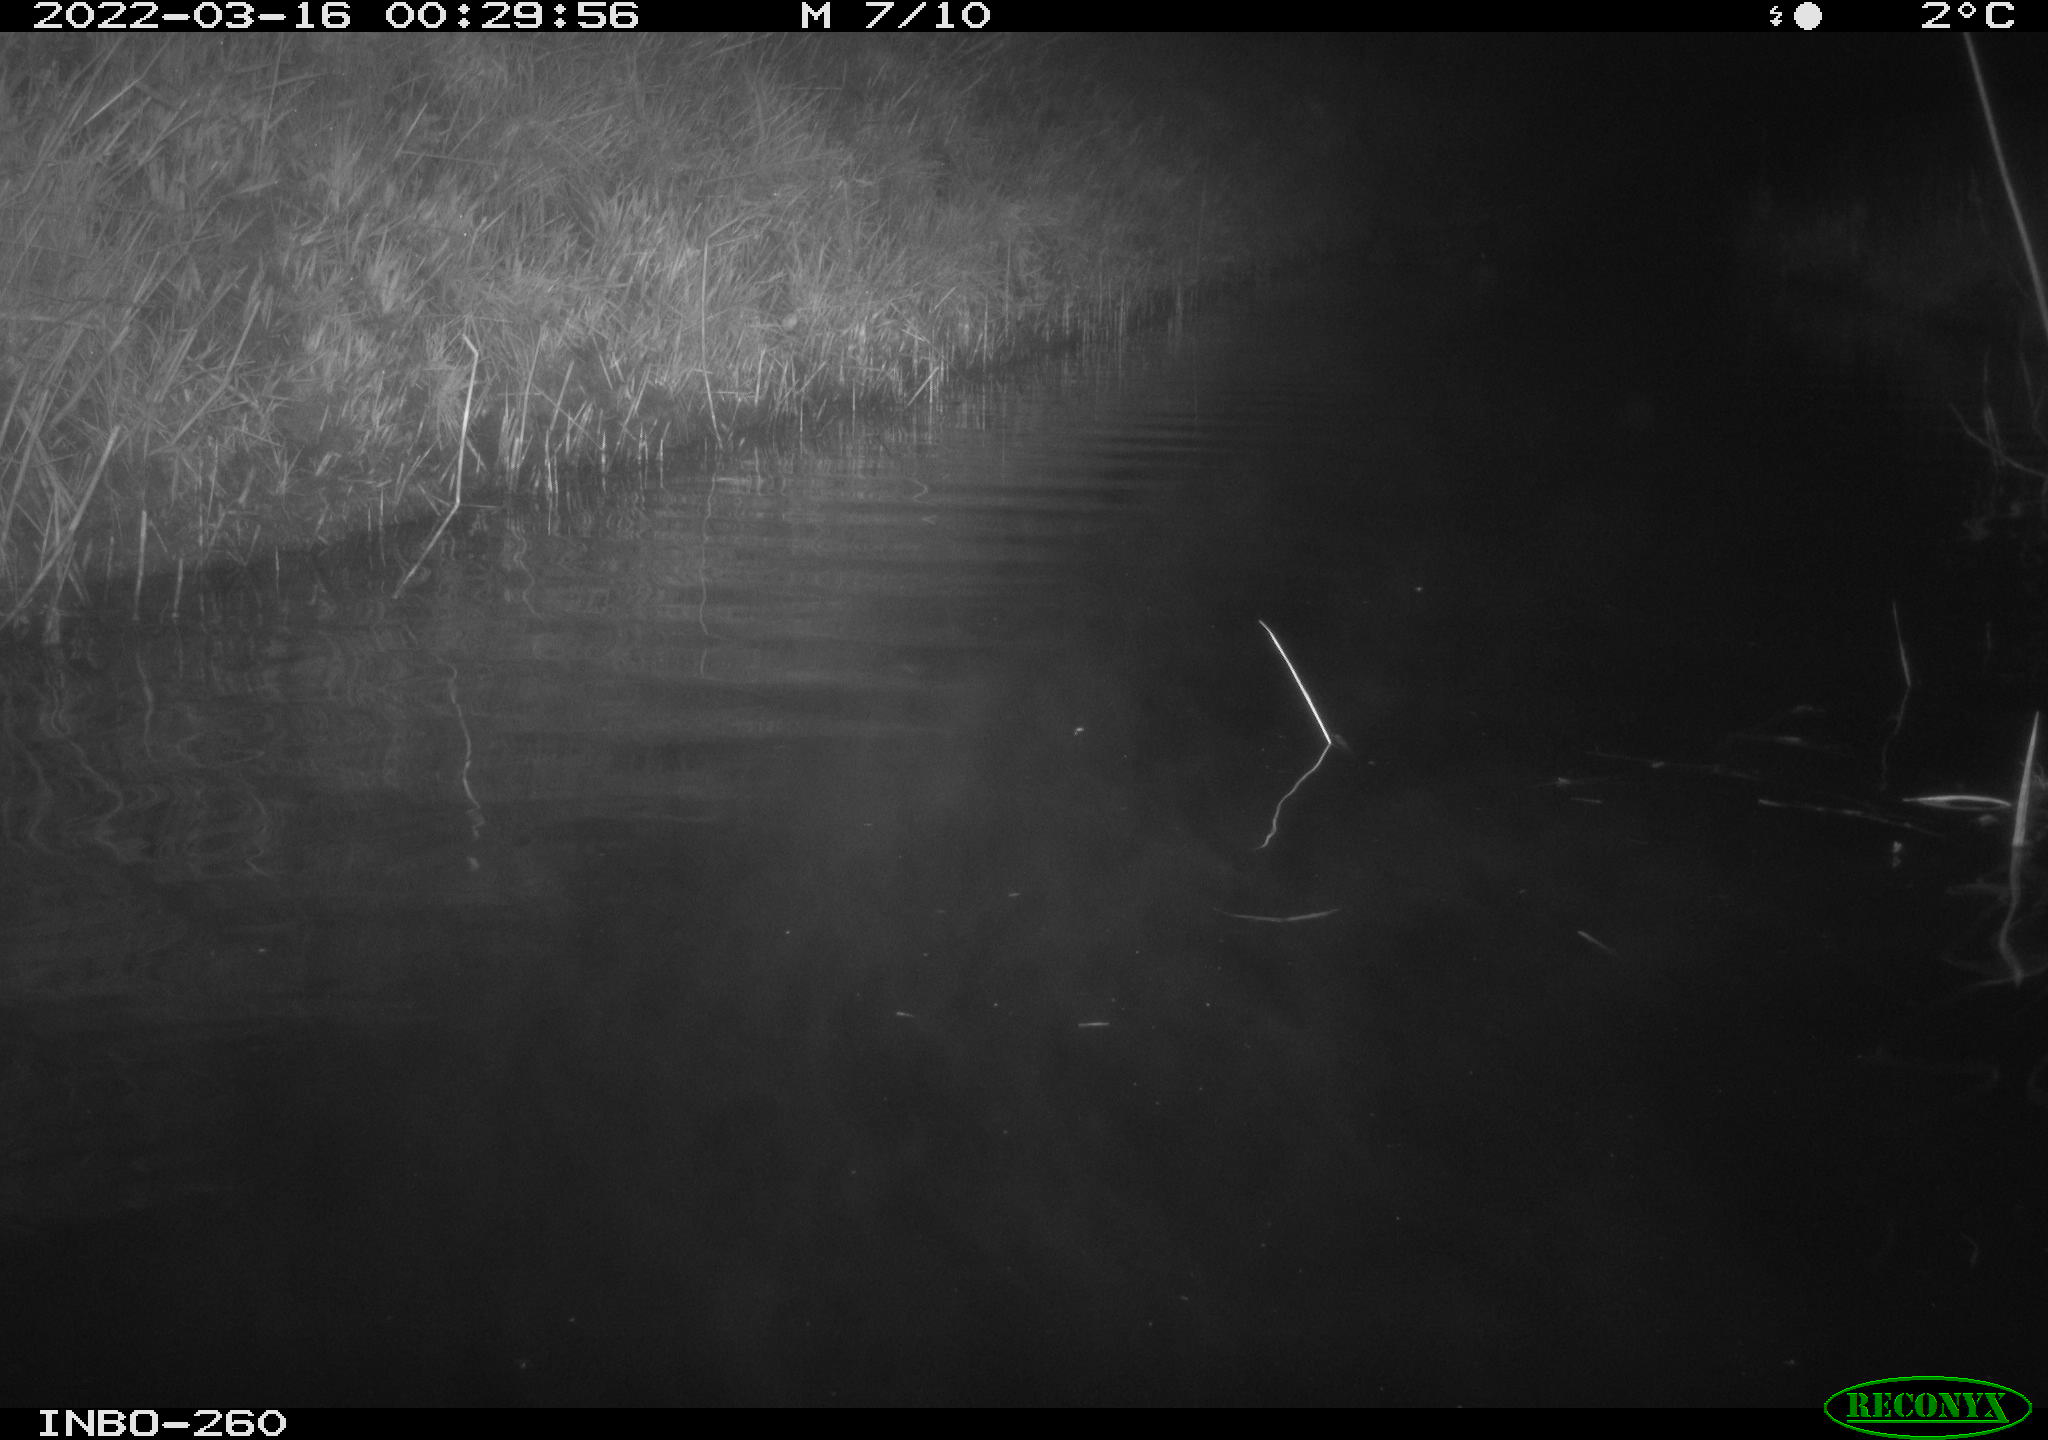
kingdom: Animalia
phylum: Chordata
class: Mammalia
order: Rodentia
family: Cricetidae
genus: Ondatra
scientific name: Ondatra zibethicus
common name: Muskrat
